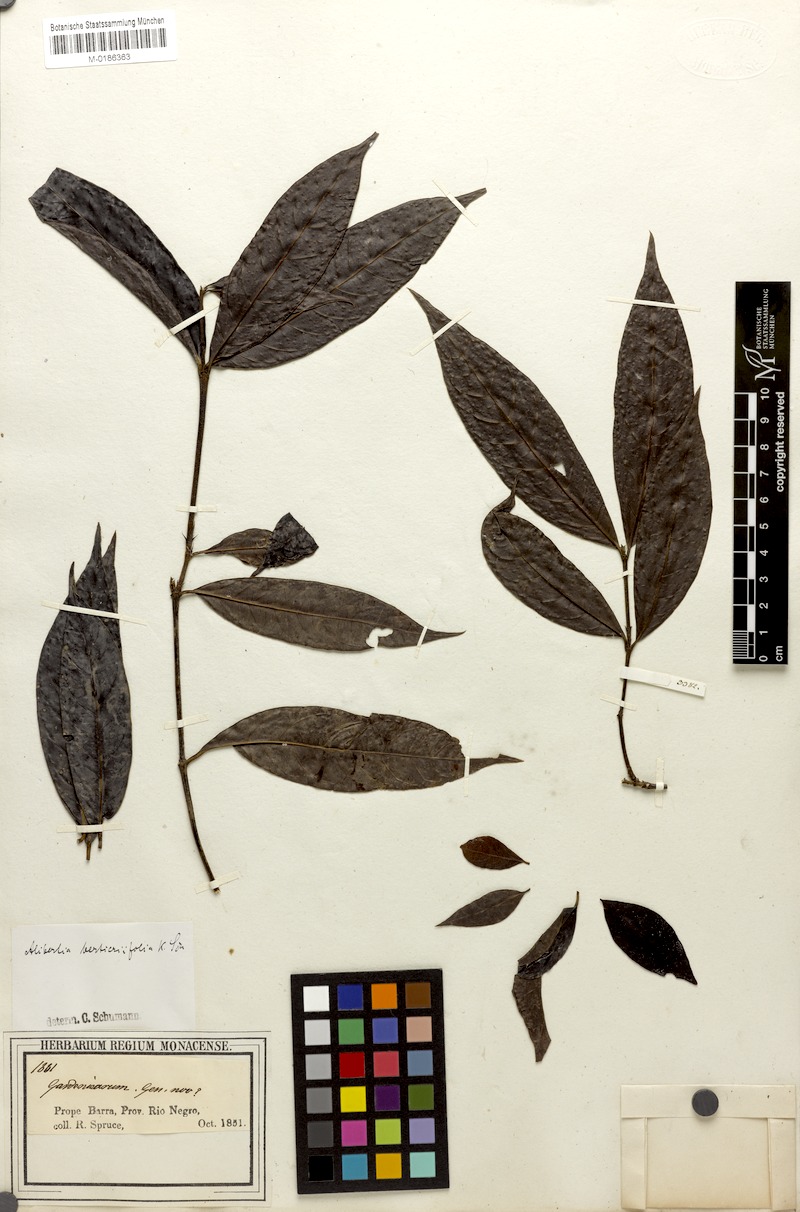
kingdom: Plantae
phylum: Tracheophyta
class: Magnoliopsida
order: Gentianales
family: Rubiaceae
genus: Alibertia
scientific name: Alibertia bertierifolia
